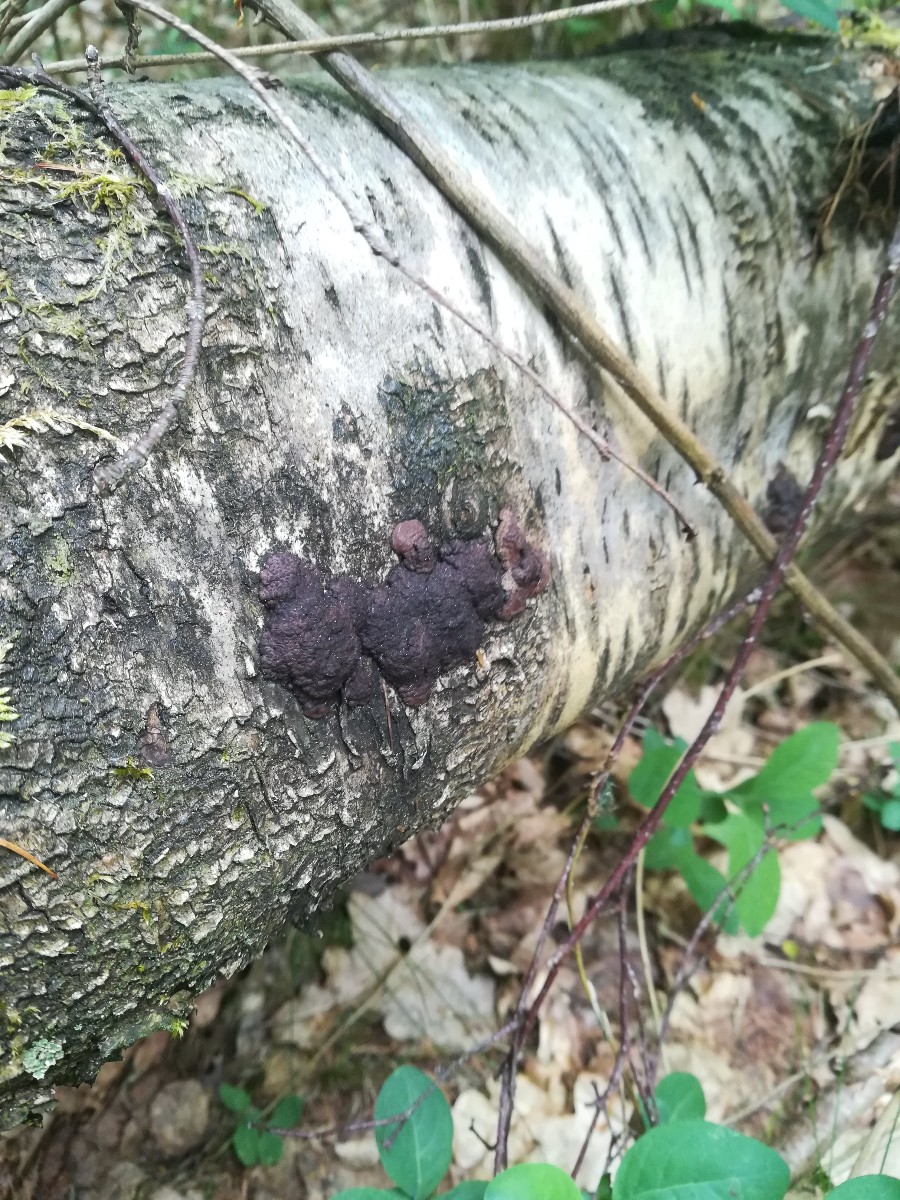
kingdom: Fungi
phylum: Ascomycota
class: Sordariomycetes
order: Xylariales
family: Hypoxylaceae
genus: Jackrogersella
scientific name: Jackrogersella multiformis
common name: foranderlig kulbær
